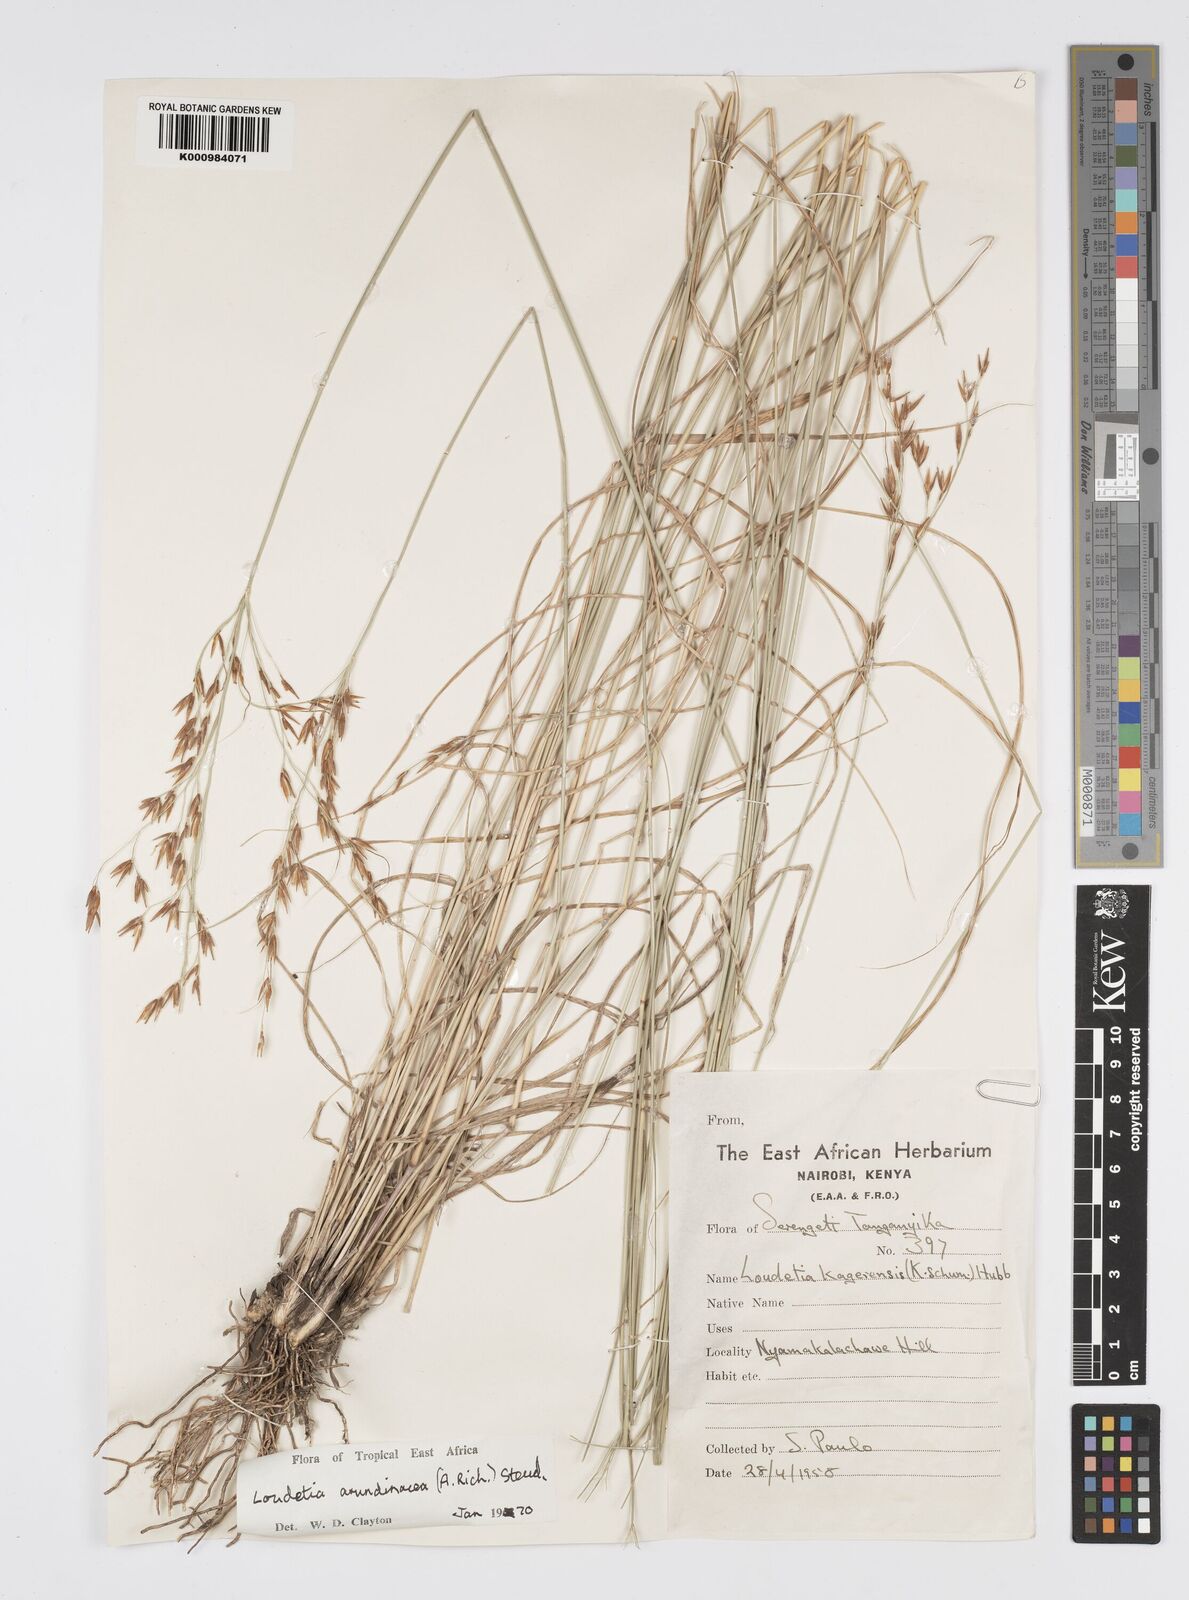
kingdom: Plantae
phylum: Tracheophyta
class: Liliopsida
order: Poales
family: Poaceae
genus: Loudetia
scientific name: Loudetia kagerensis
